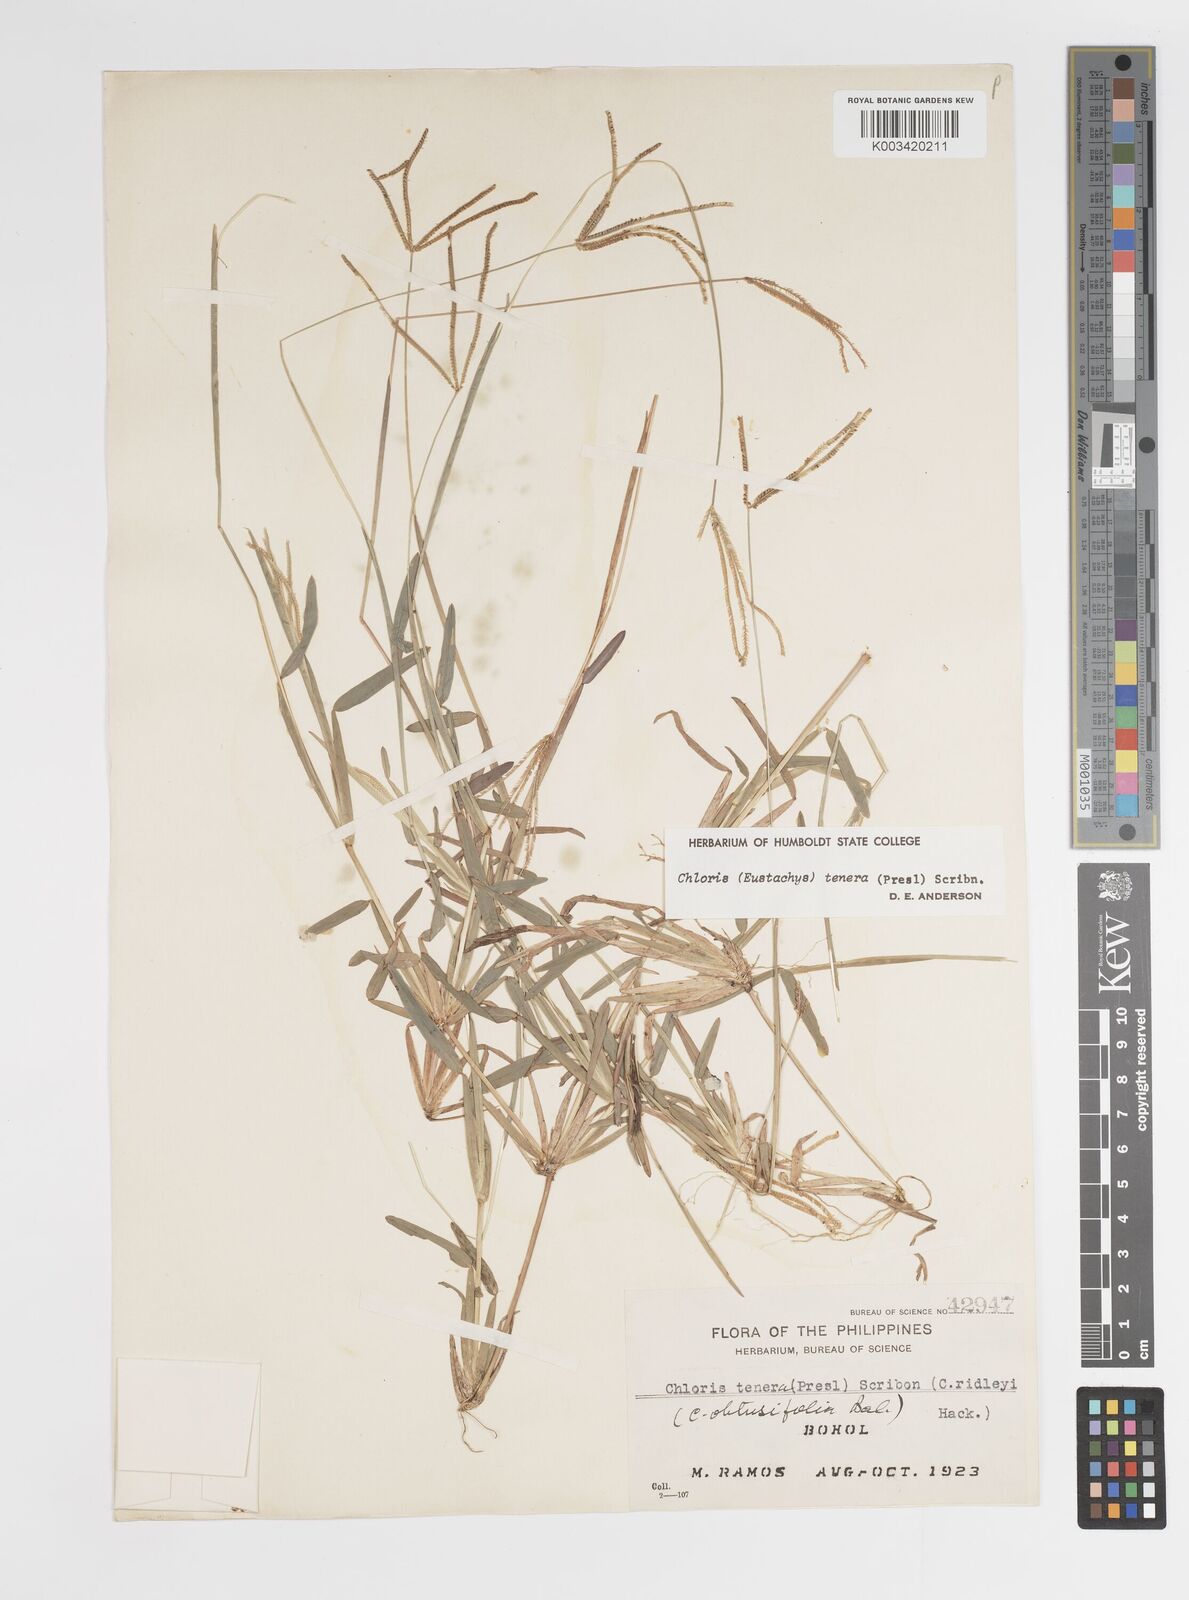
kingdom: Plantae
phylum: Tracheophyta
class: Liliopsida
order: Poales
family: Poaceae
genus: Eustachys
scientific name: Eustachys tenera
